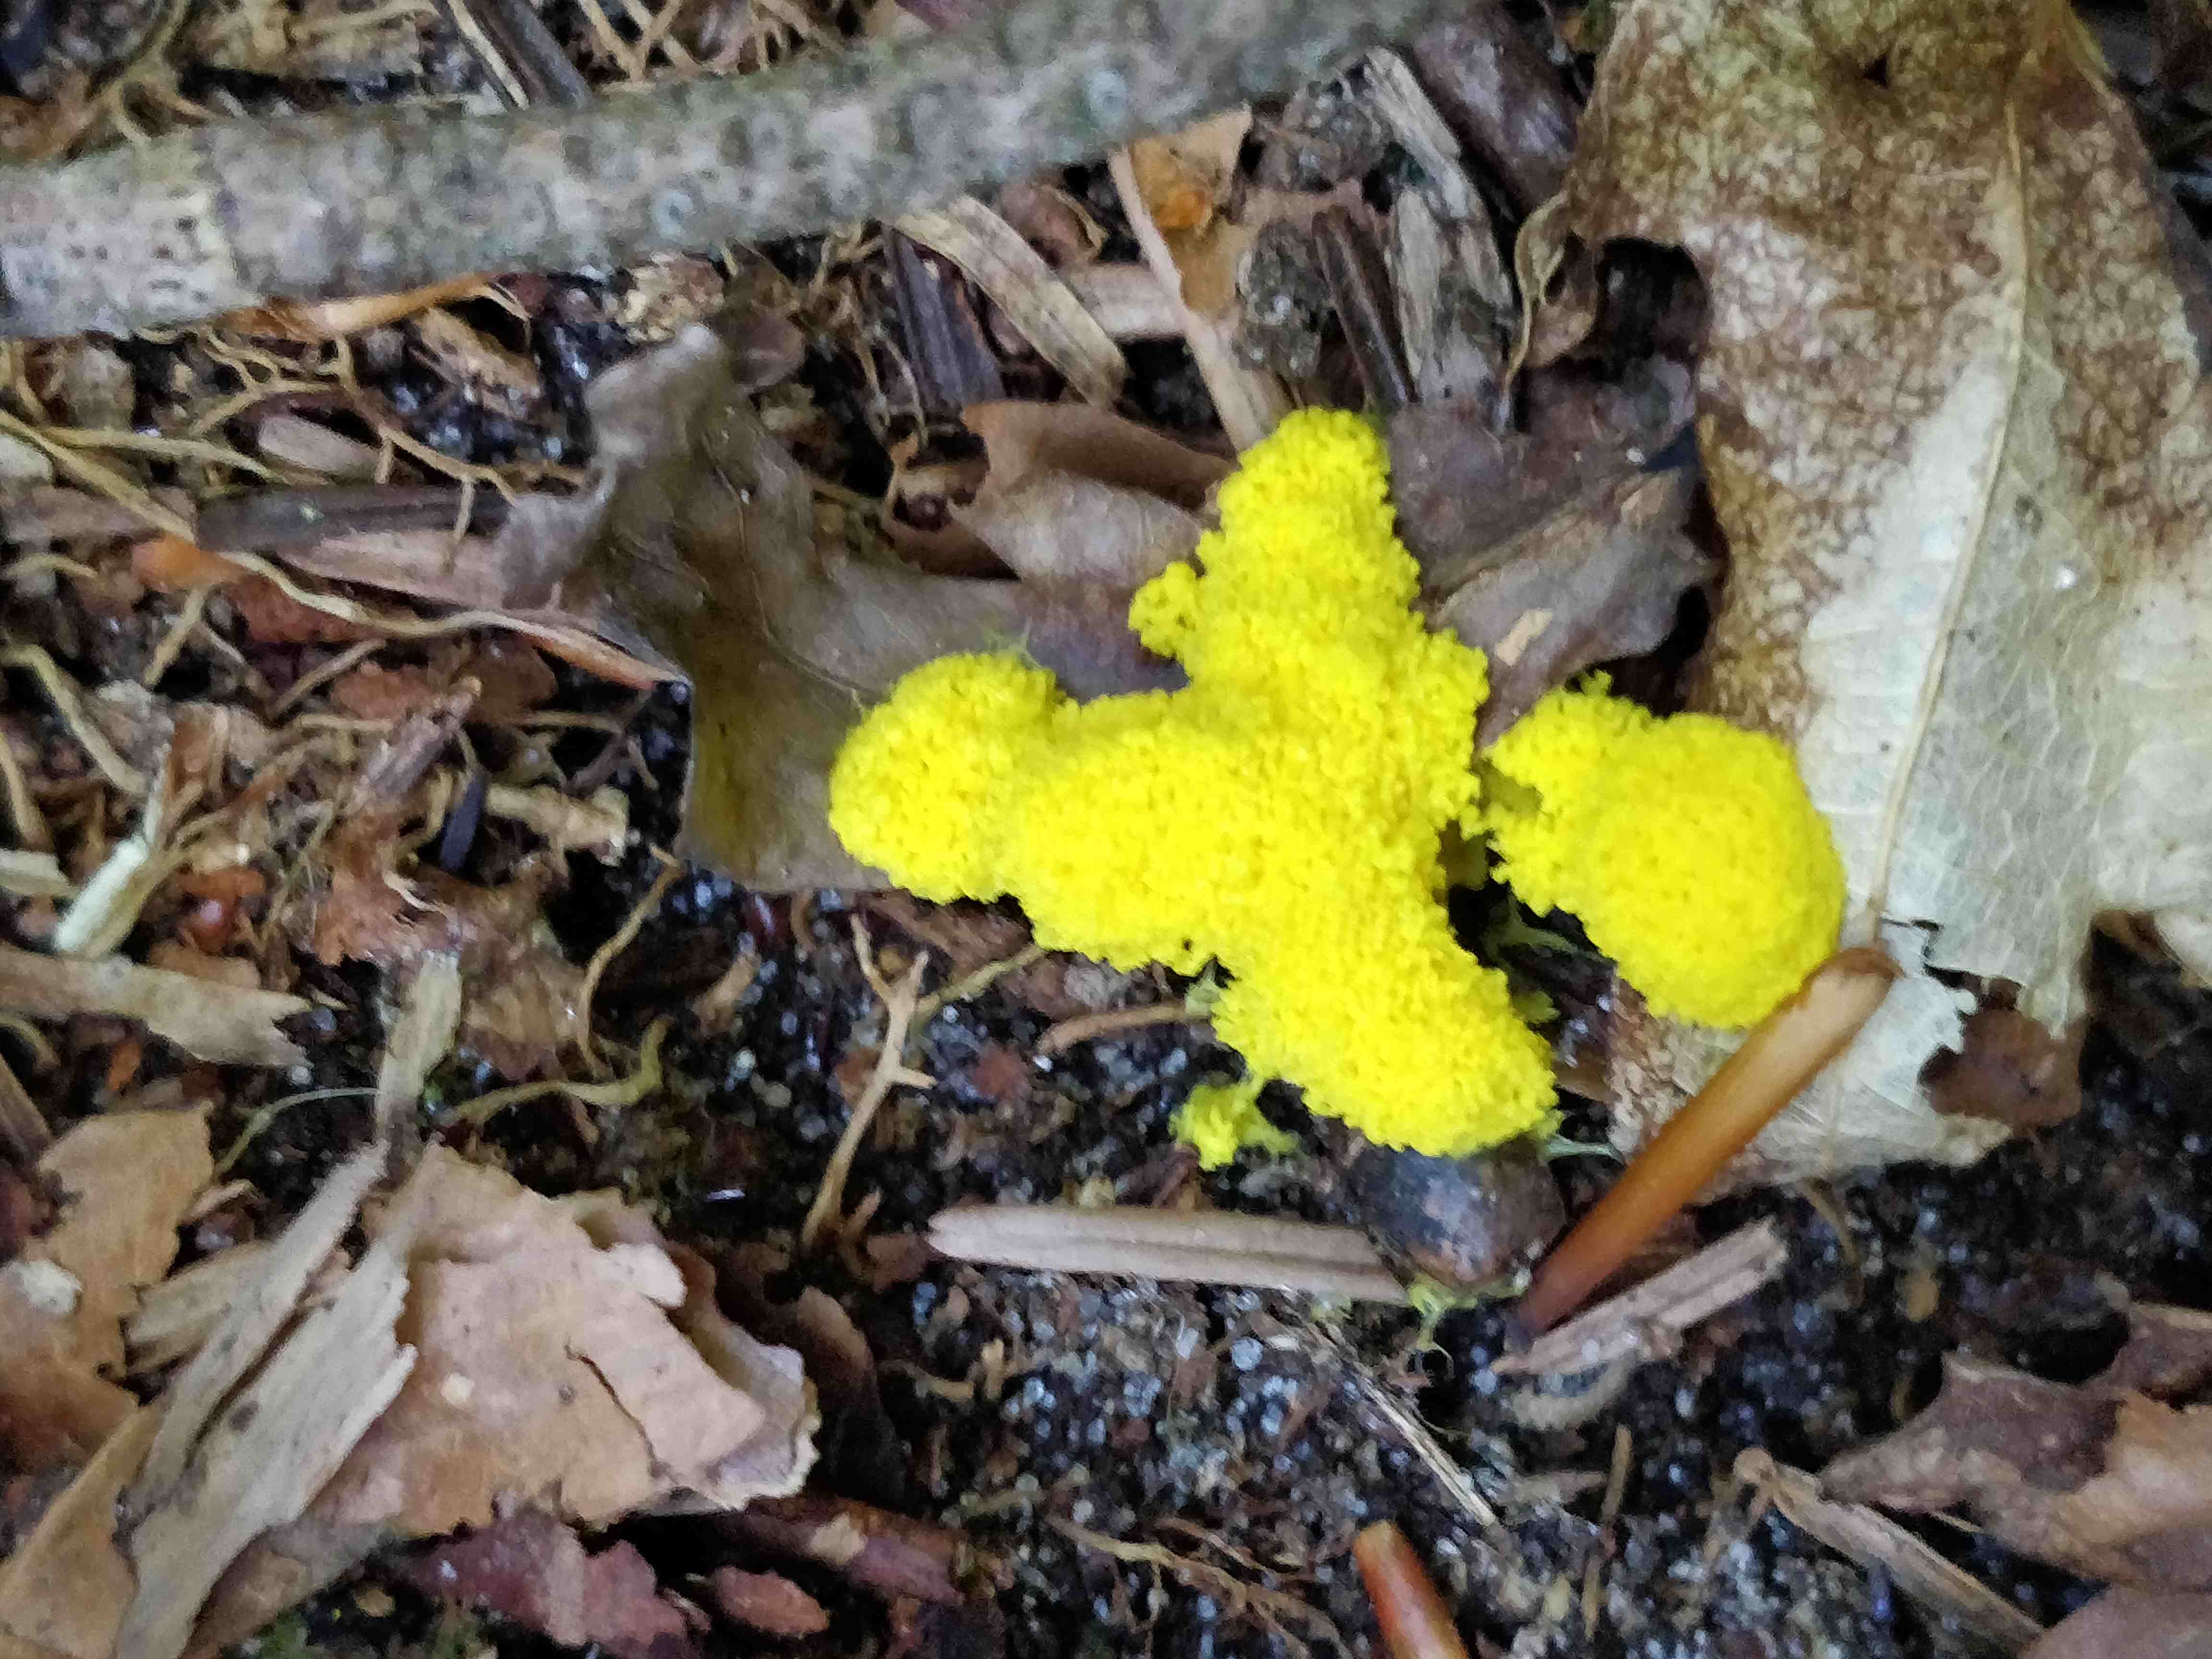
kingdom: Protozoa
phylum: Mycetozoa
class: Myxomycetes
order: Physarales
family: Physaraceae
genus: Fuligo
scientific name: Fuligo
